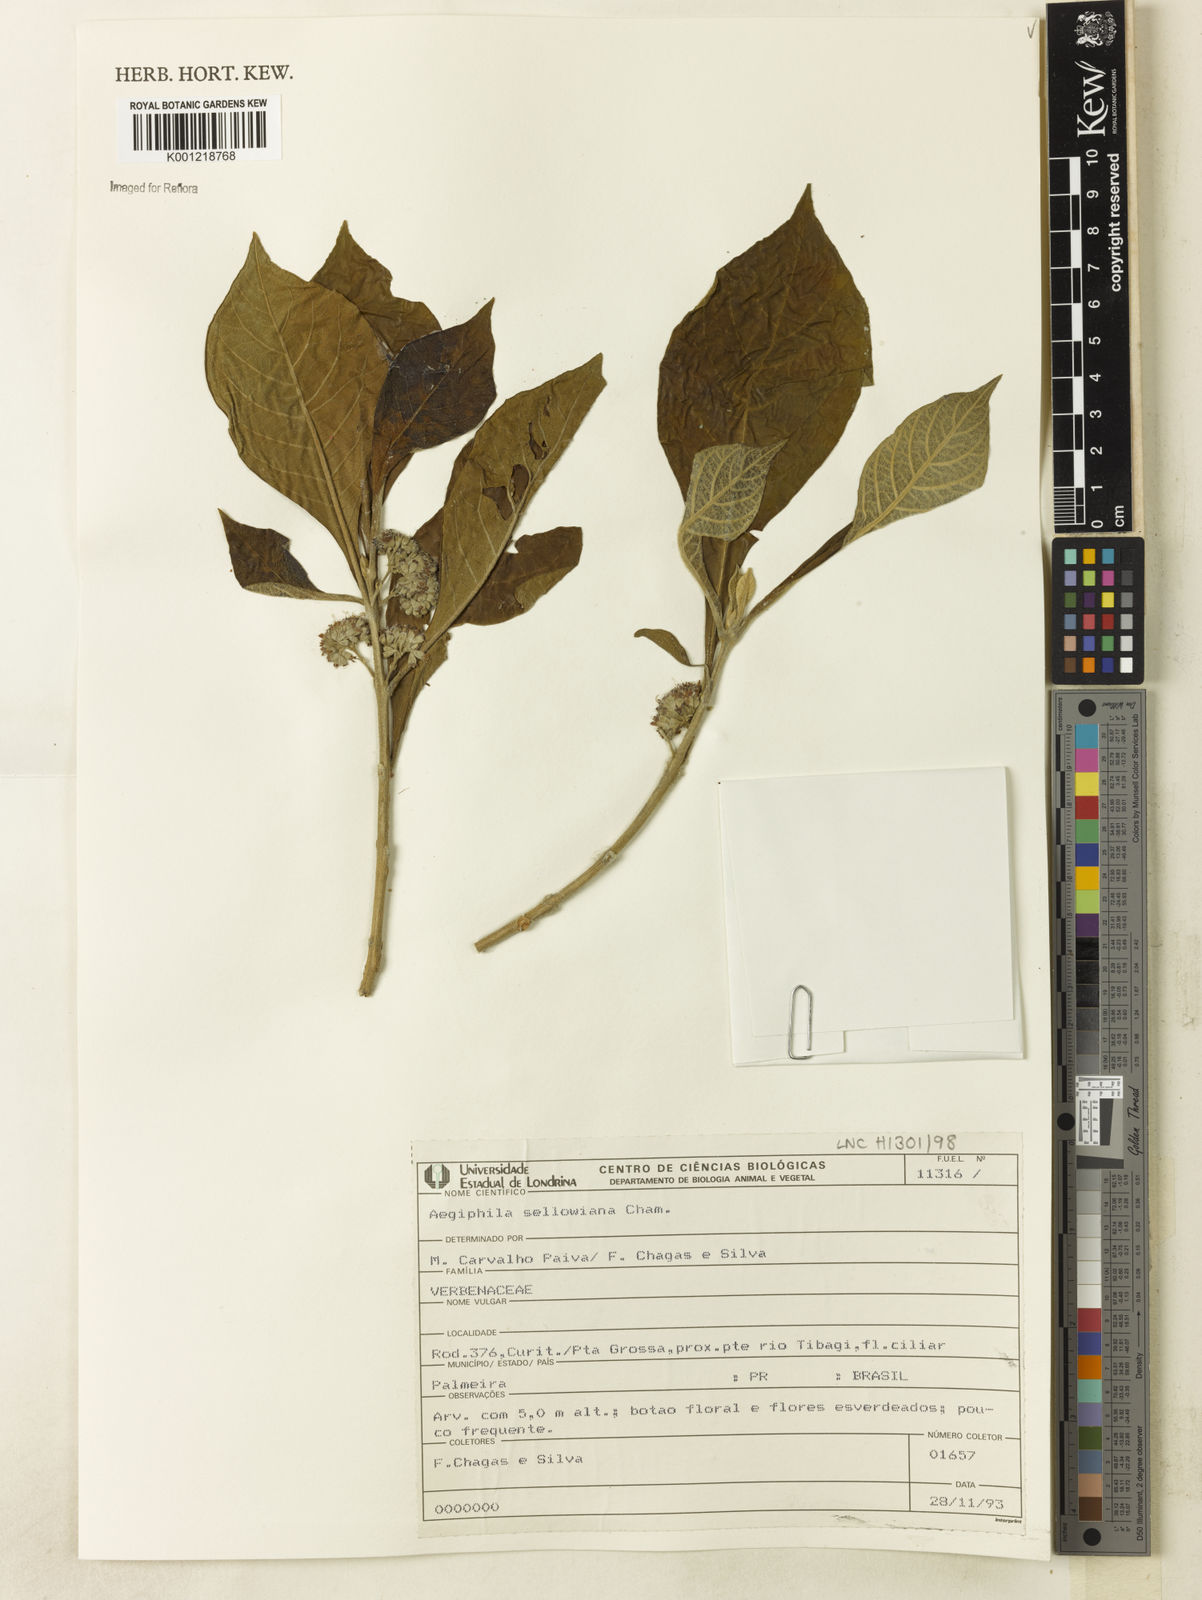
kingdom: Plantae
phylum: Tracheophyta
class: Magnoliopsida
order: Lamiales
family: Lamiaceae
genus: Aegiphila
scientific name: Aegiphila verticillata
